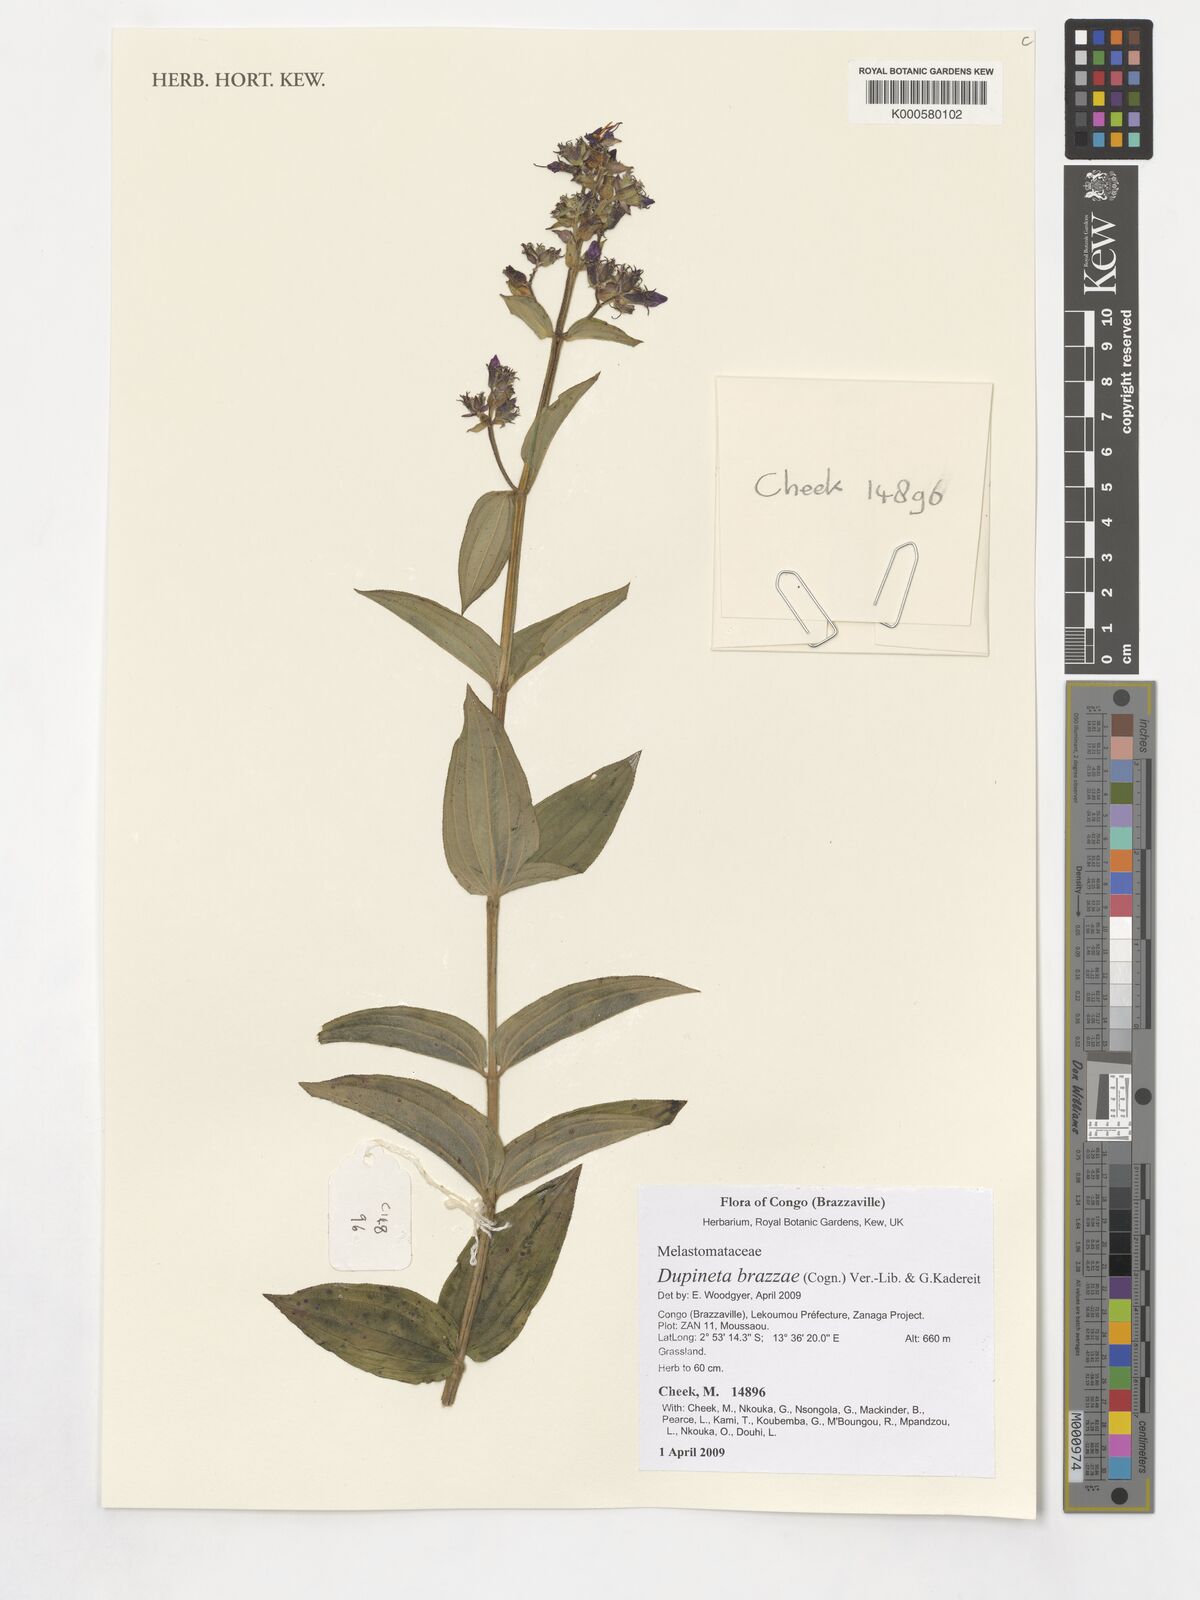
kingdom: Plantae
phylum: Tracheophyta
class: Magnoliopsida
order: Myrtales
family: Melastomataceae
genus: Dupineta
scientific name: Dupineta brazzae
